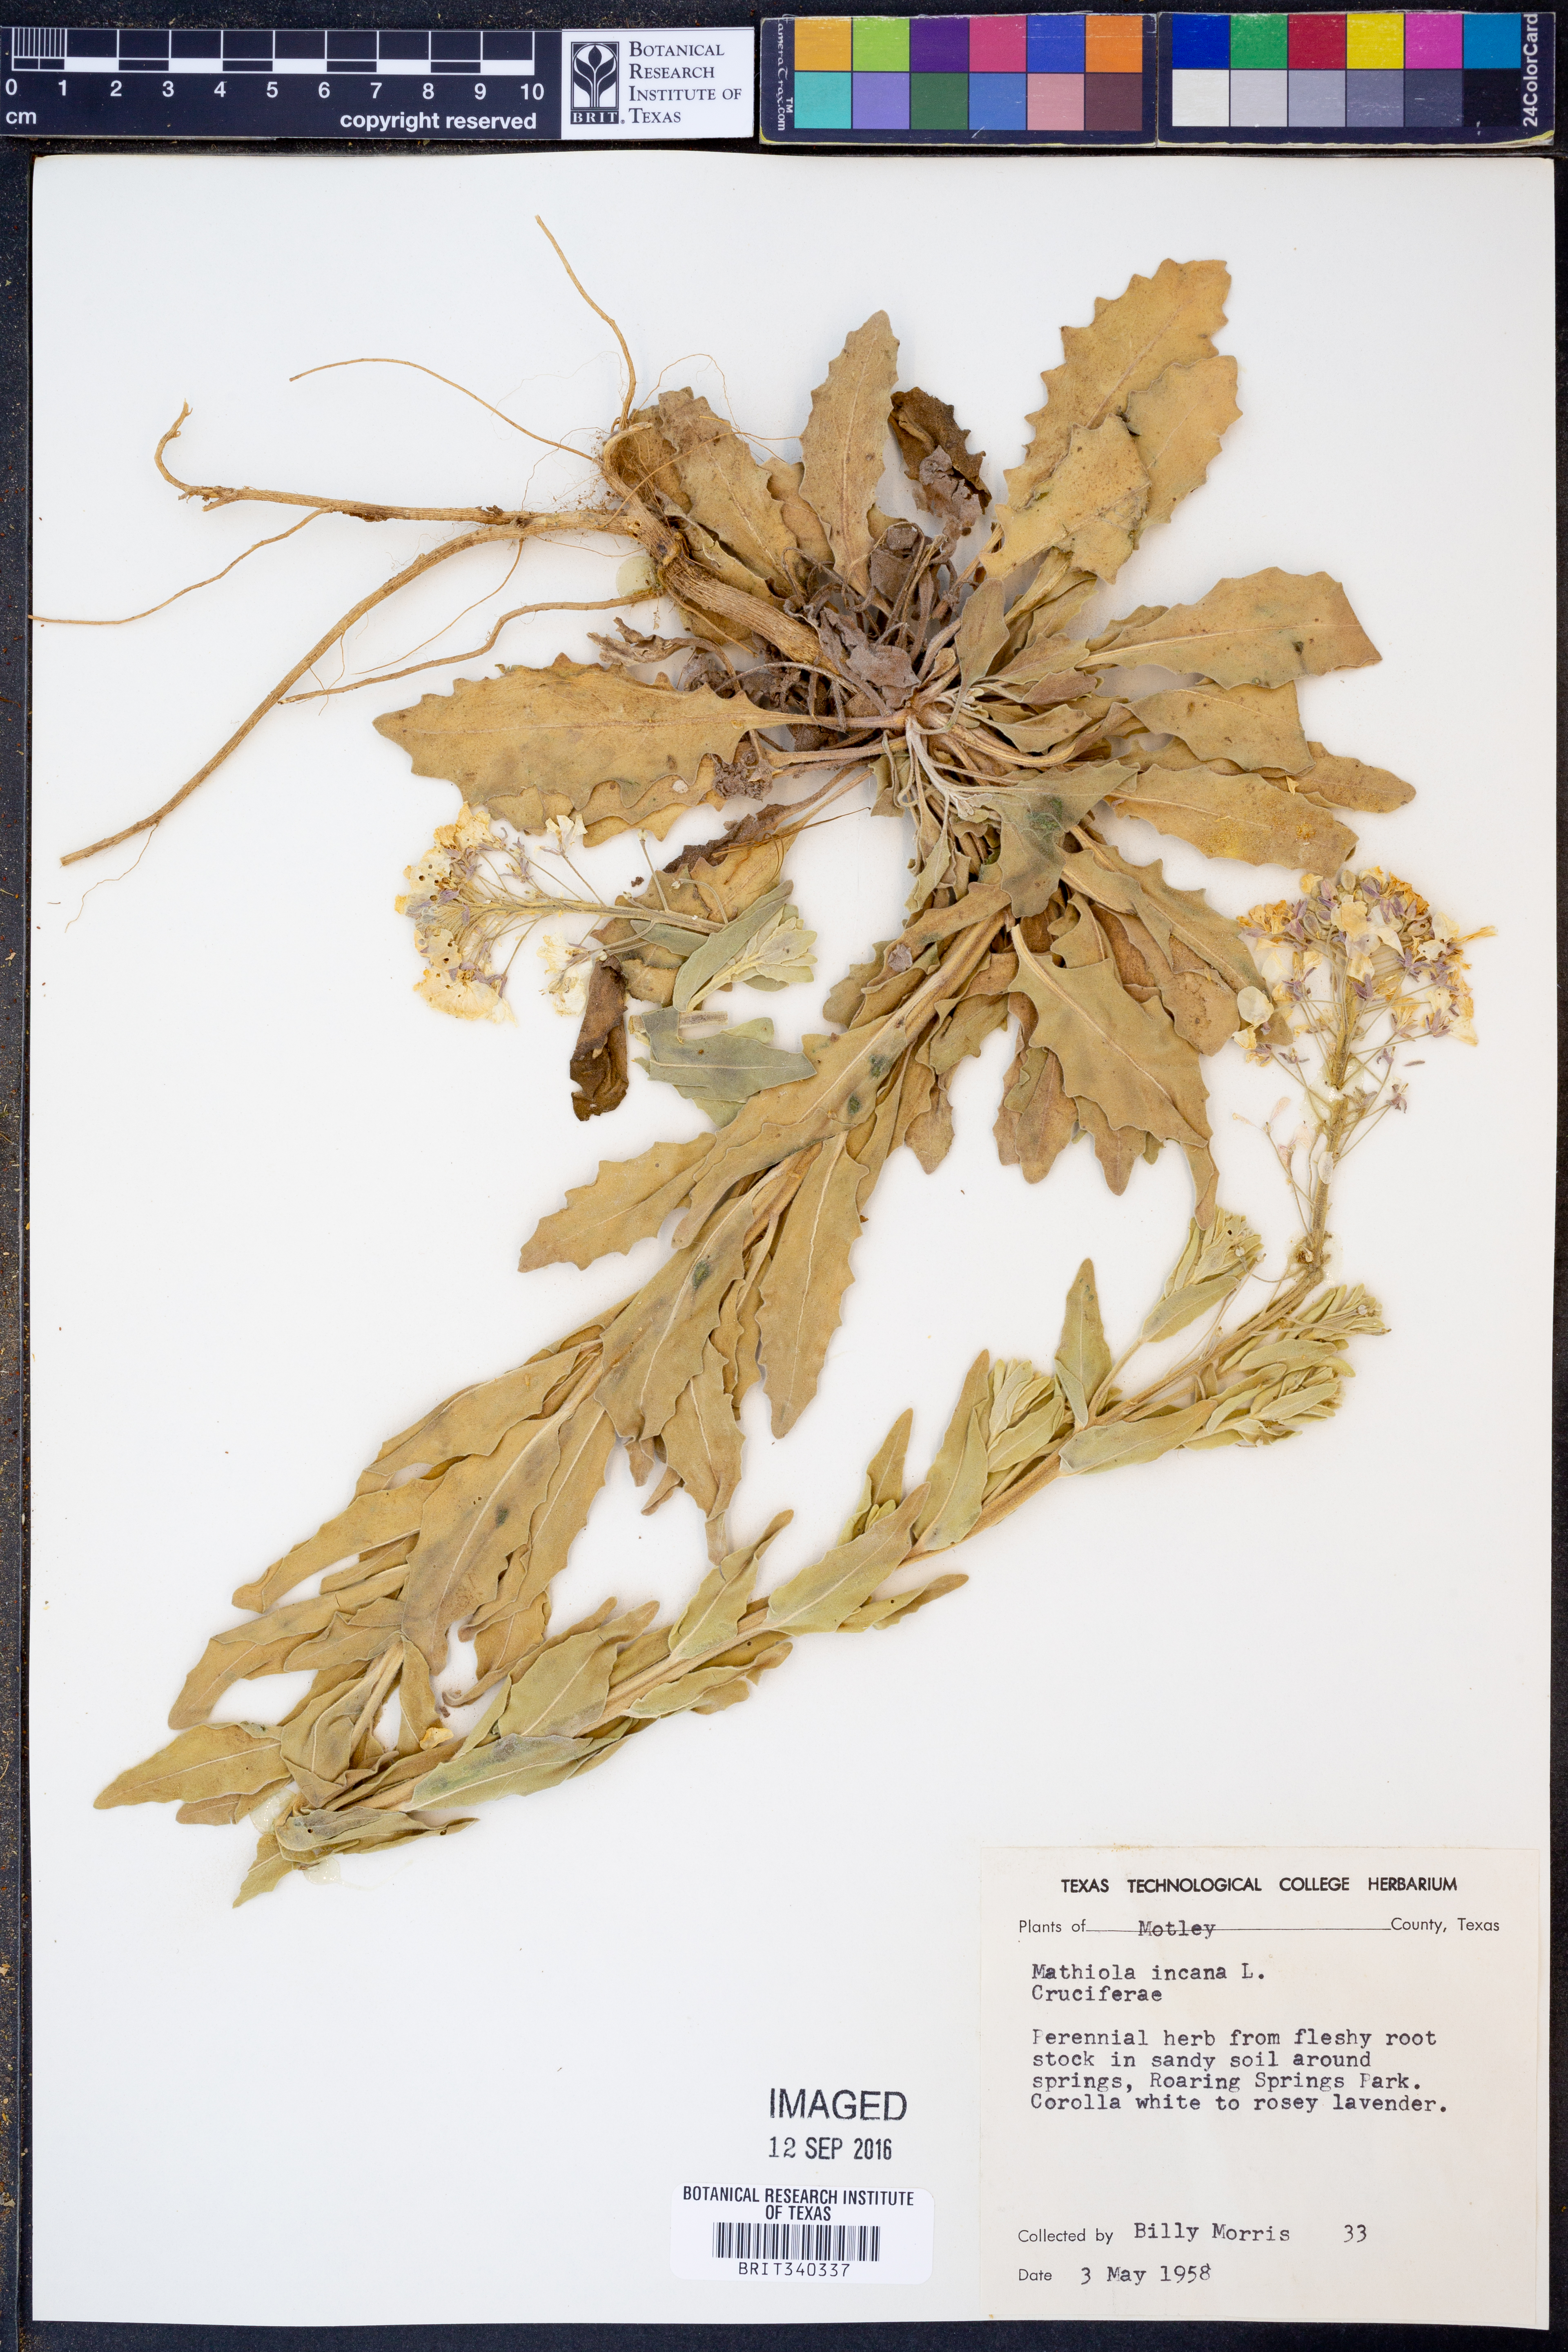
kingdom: Plantae
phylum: Tracheophyta
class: Magnoliopsida
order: Brassicales
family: Brassicaceae
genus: Matthiola
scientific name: Matthiola incana
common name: Hoary stock
